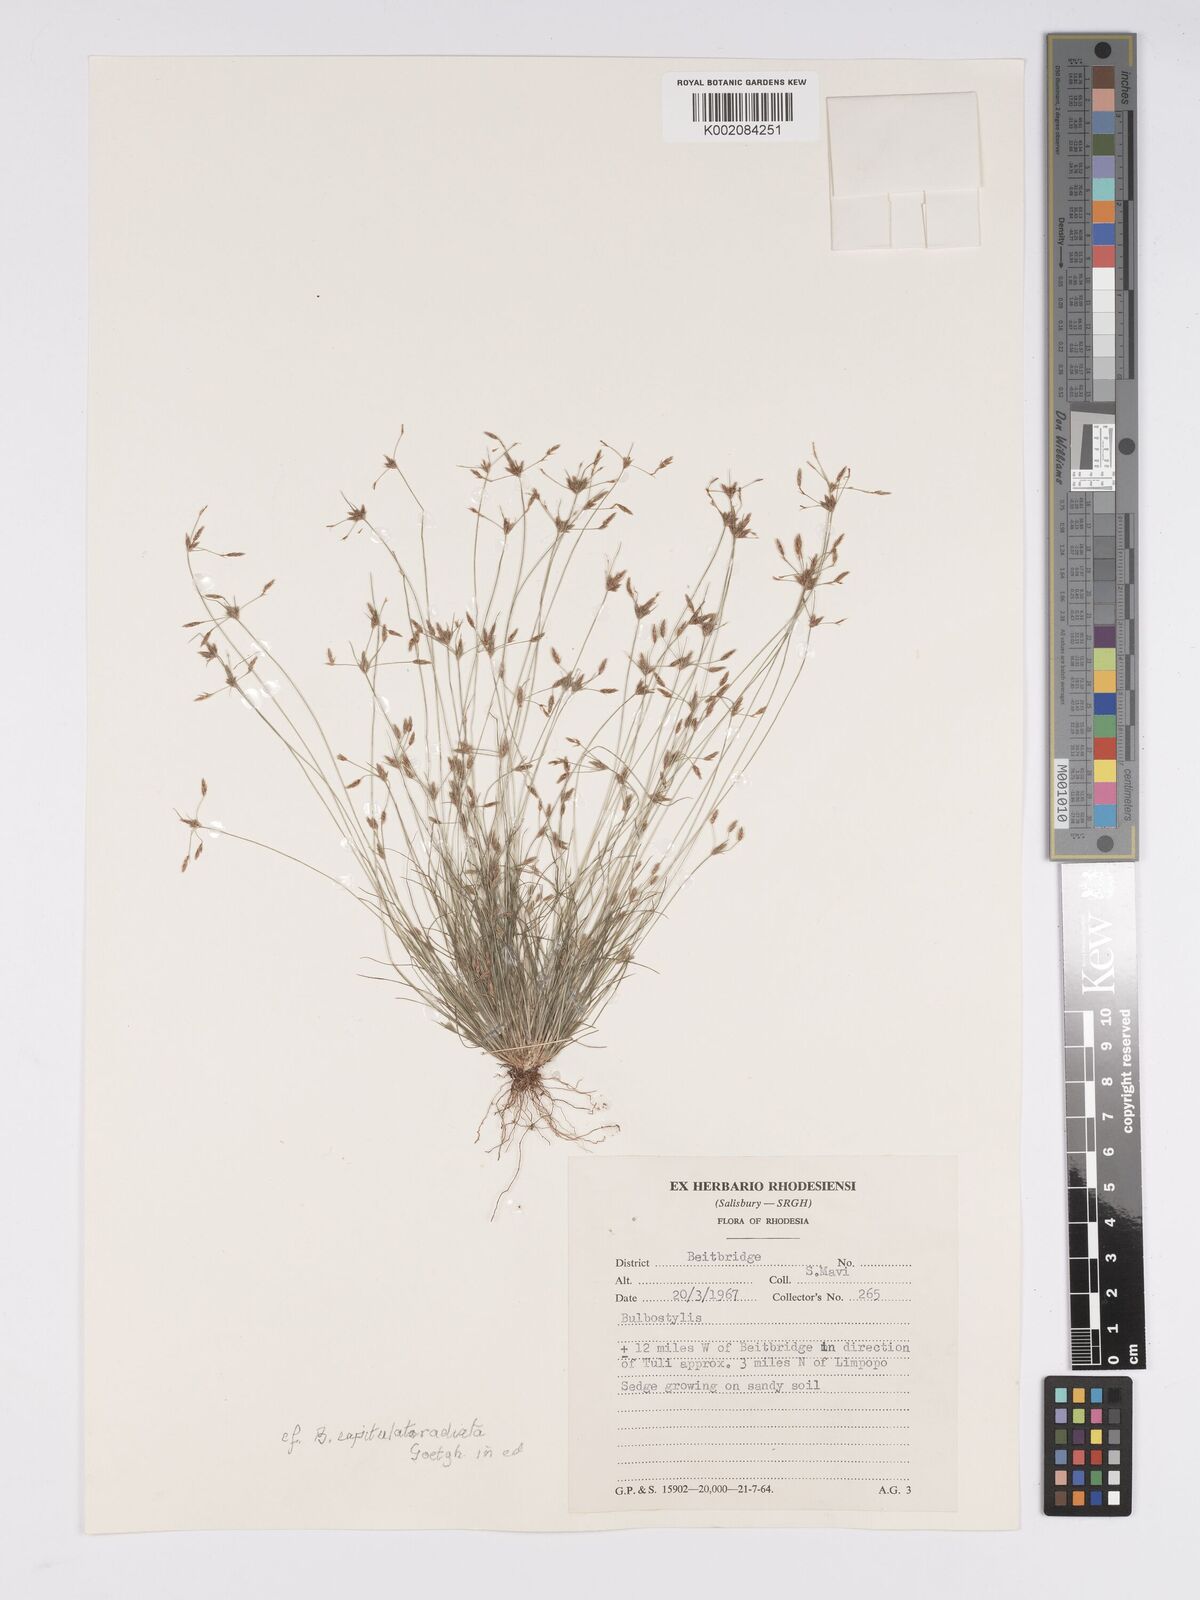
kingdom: Plantae
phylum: Tracheophyta
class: Liliopsida
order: Poales
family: Cyperaceae
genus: Bulbostylis
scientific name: Bulbostylis
